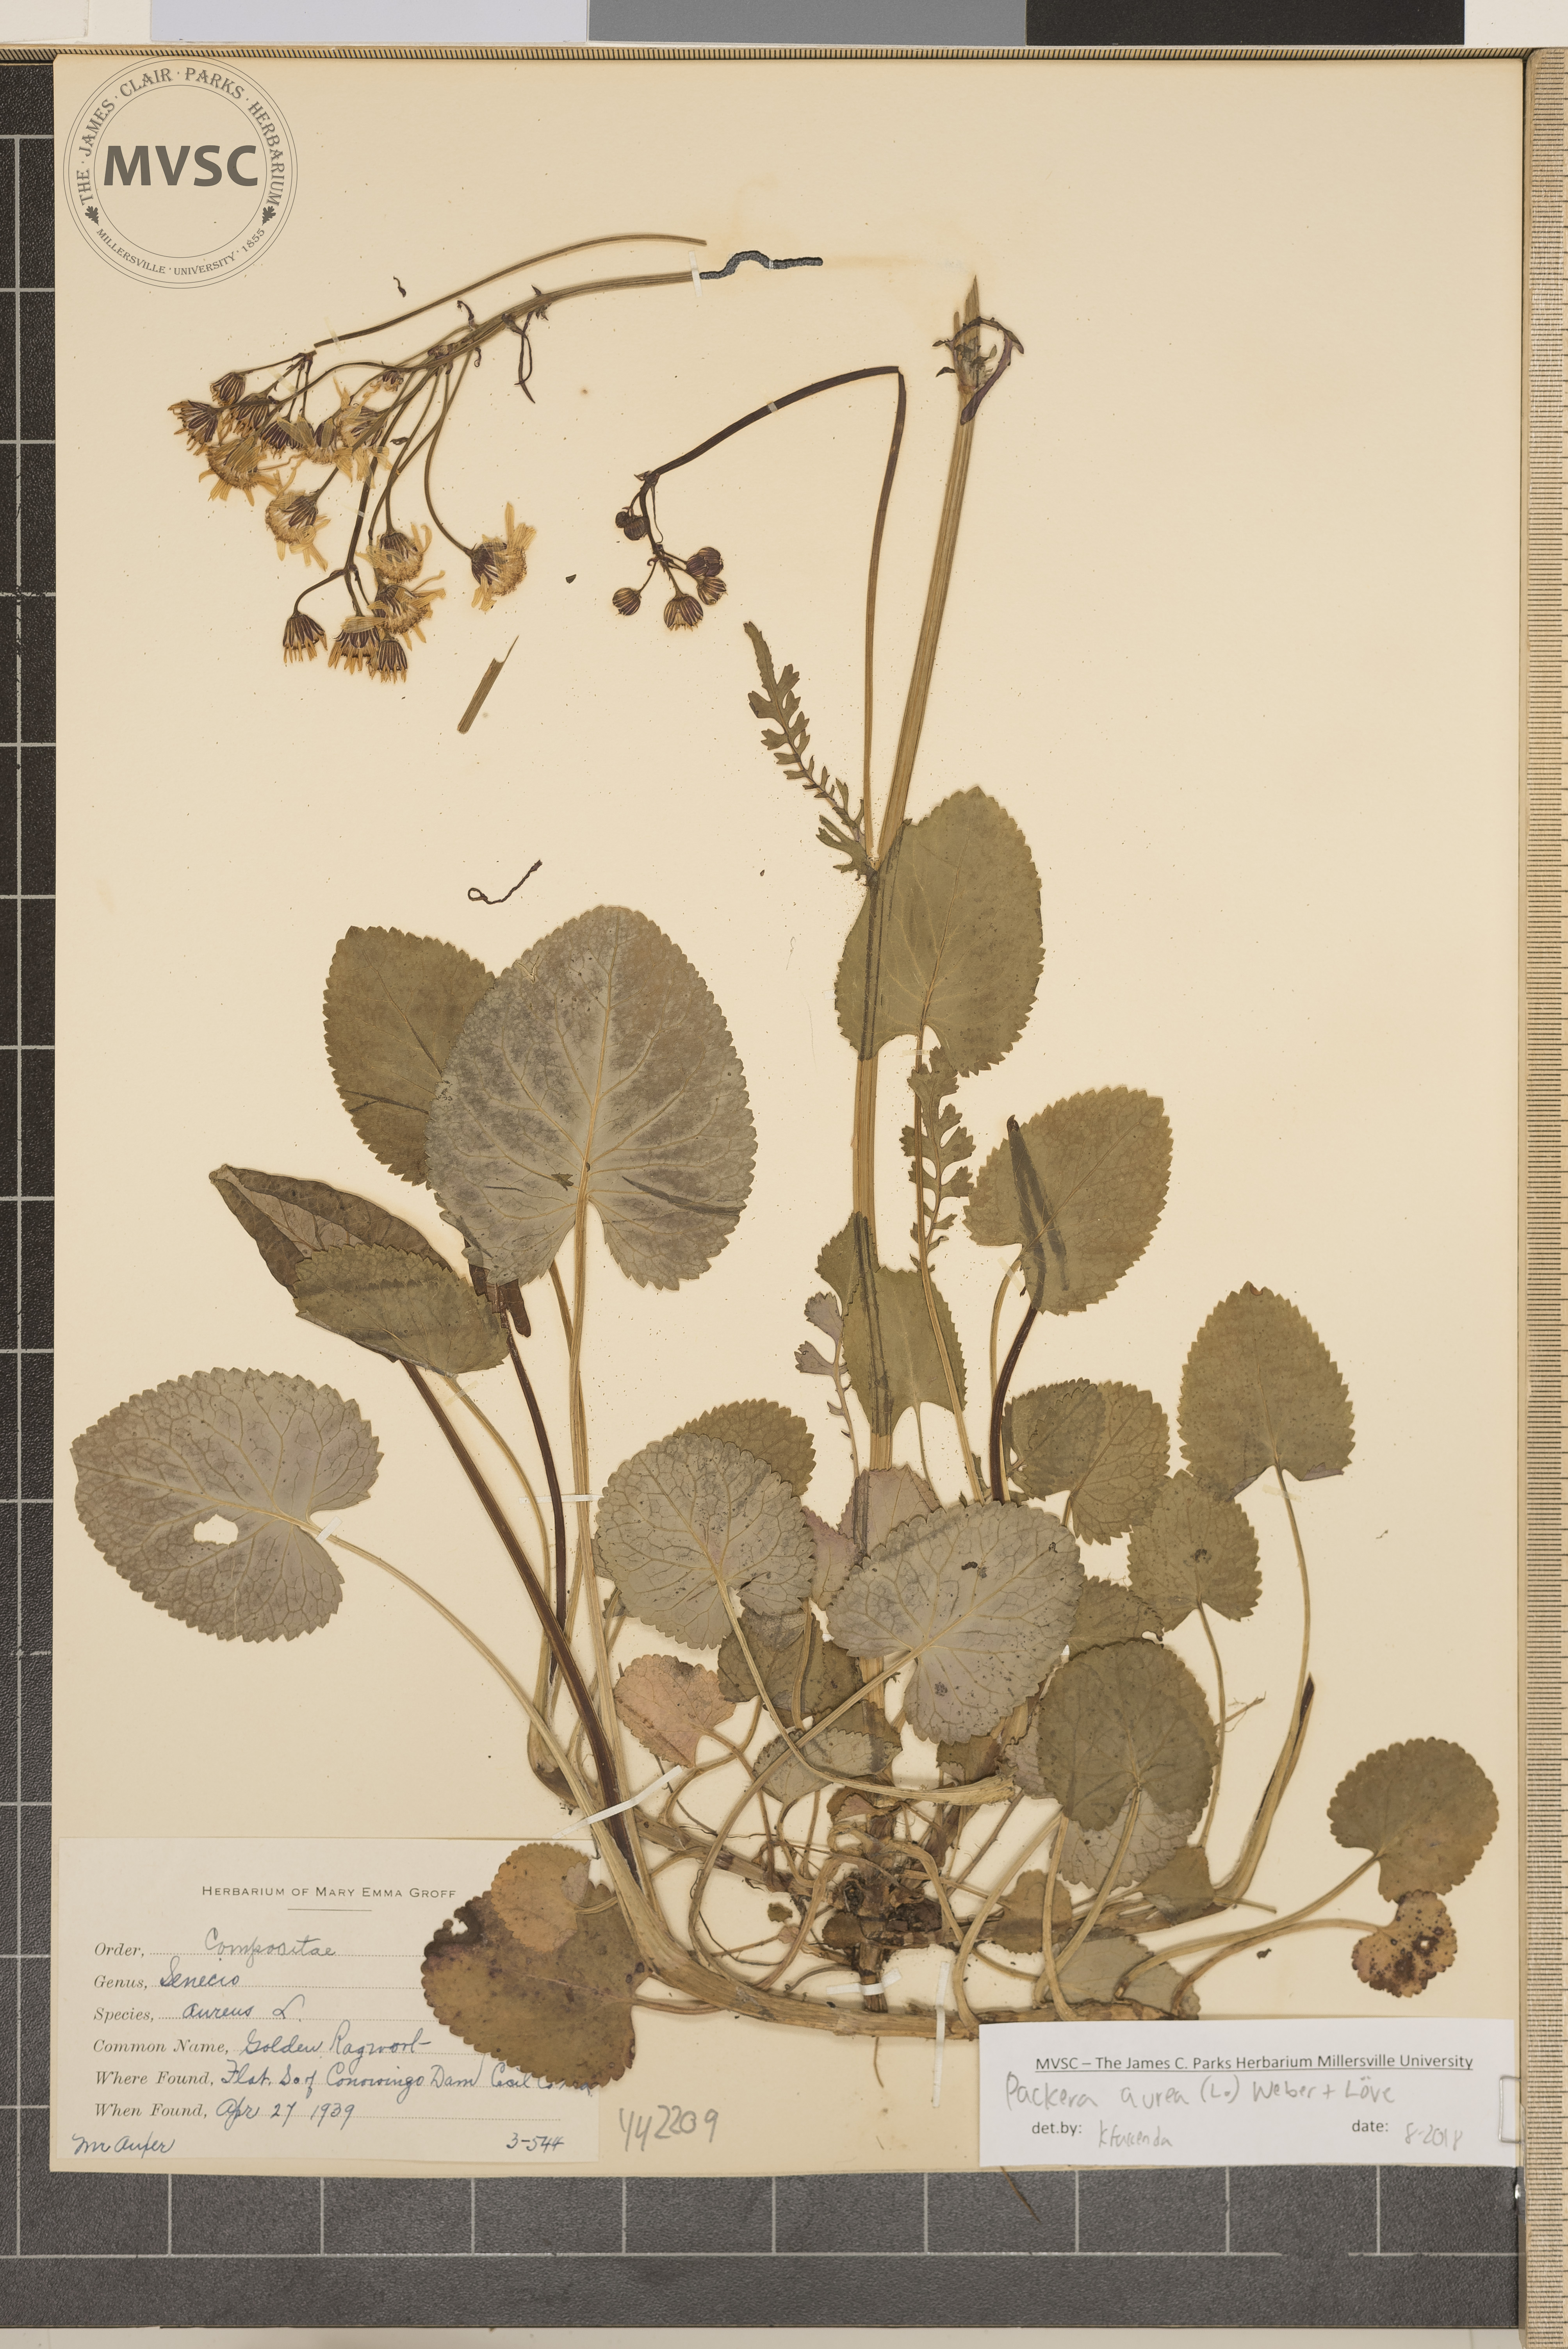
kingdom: Plantae
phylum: Tracheophyta
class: Magnoliopsida
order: Asterales
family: Asteraceae
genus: Packera
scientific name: Packera aurea
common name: Golden ragwort
